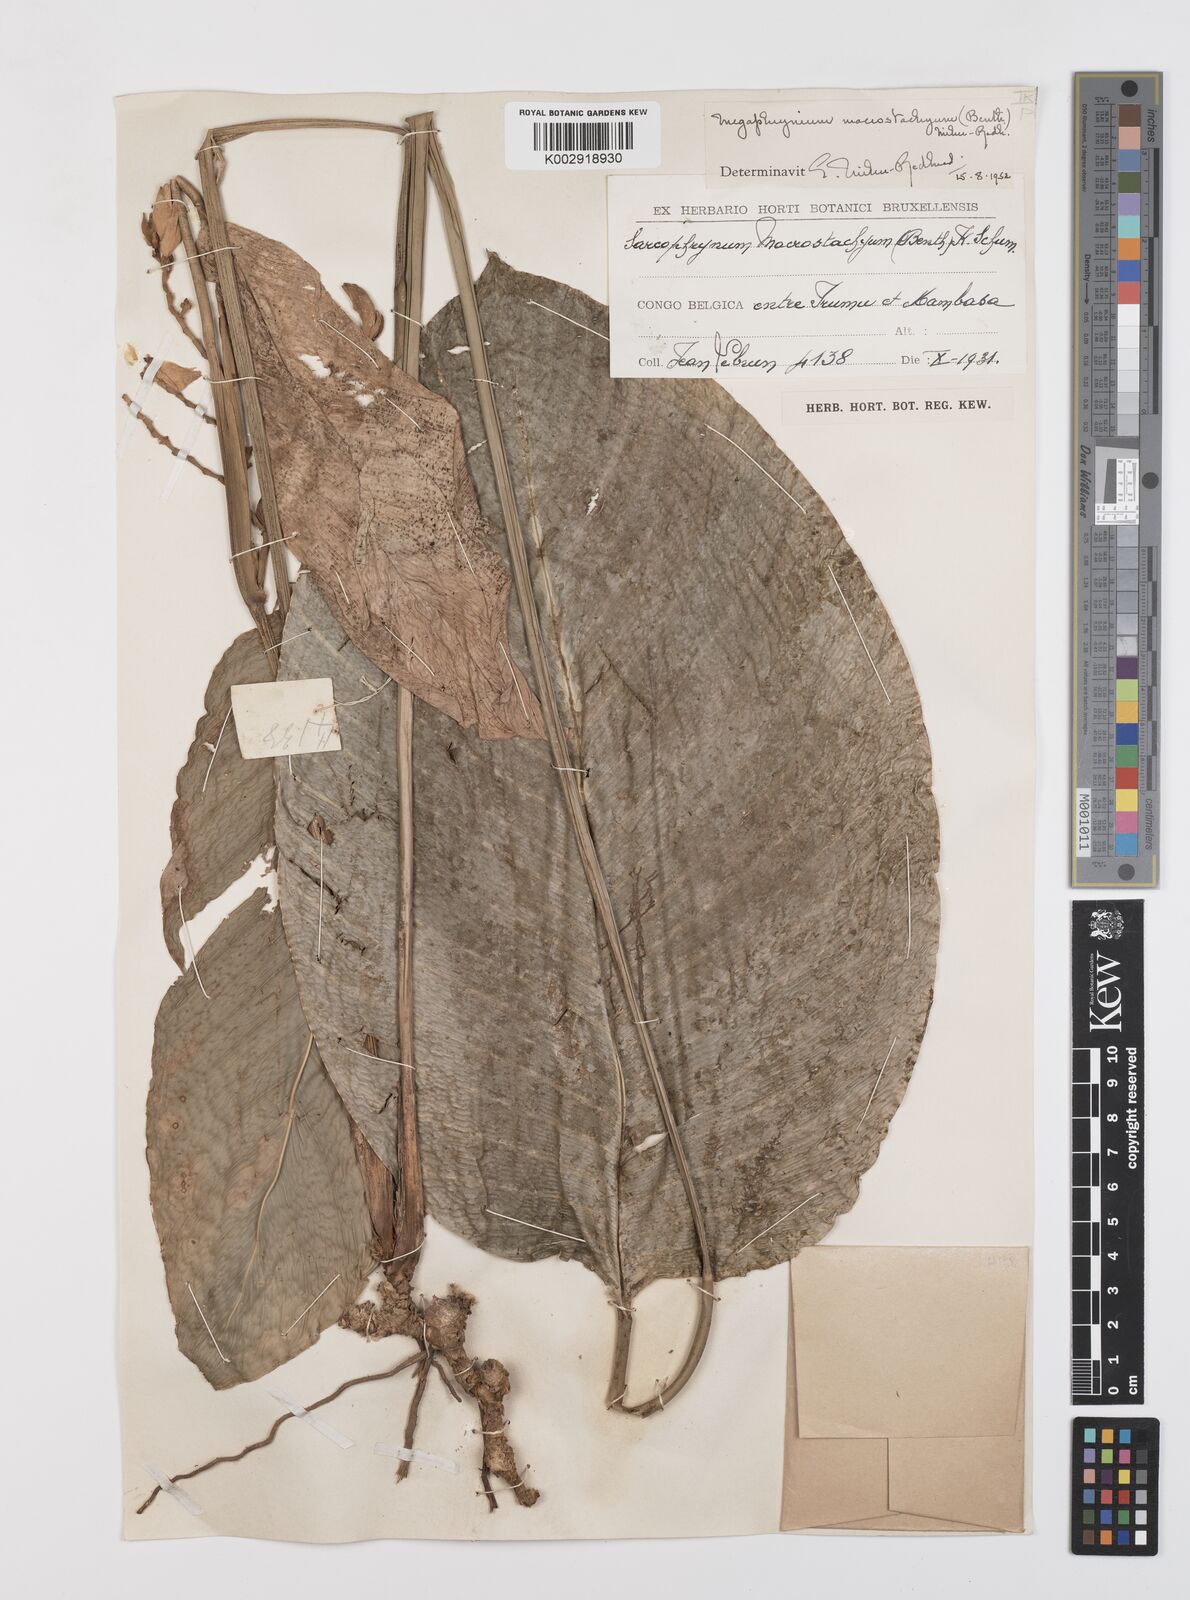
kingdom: Plantae
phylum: Tracheophyta
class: Liliopsida
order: Zingiberales
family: Marantaceae
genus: Megaphrynium
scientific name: Megaphrynium macrostachyum
